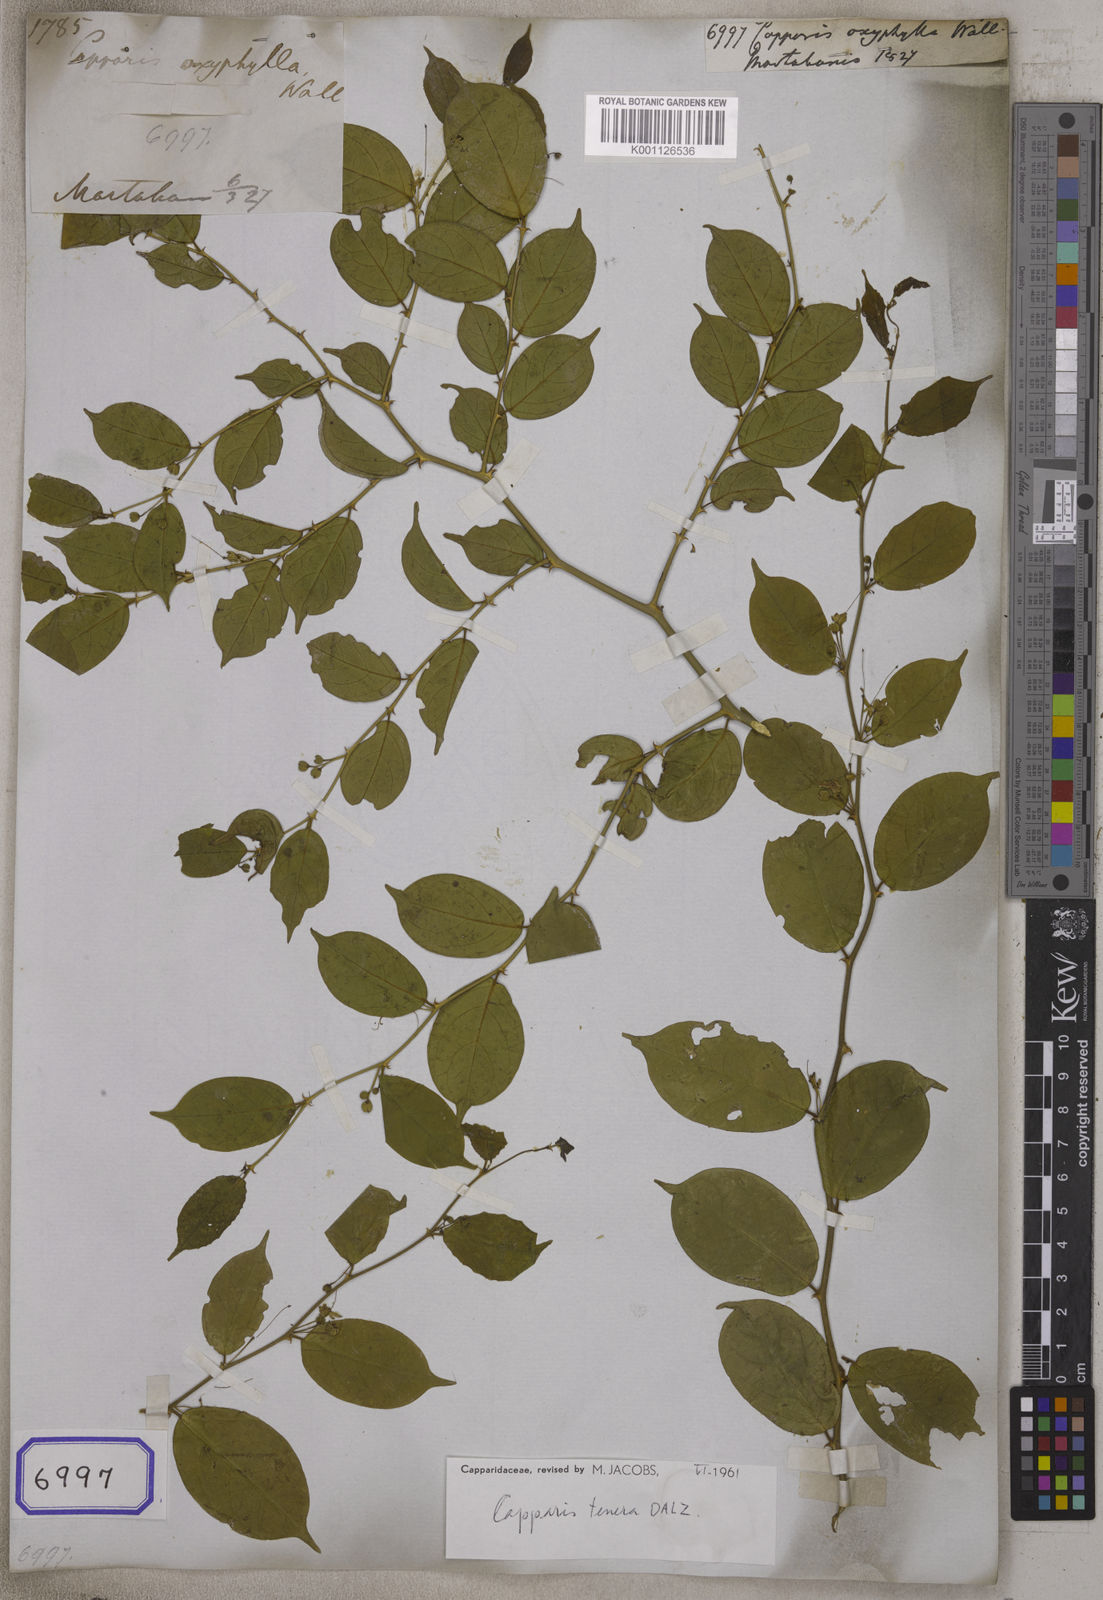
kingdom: Plantae
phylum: Tracheophyta
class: Magnoliopsida
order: Brassicales
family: Capparaceae
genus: Capparis
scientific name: Capparis tenera
